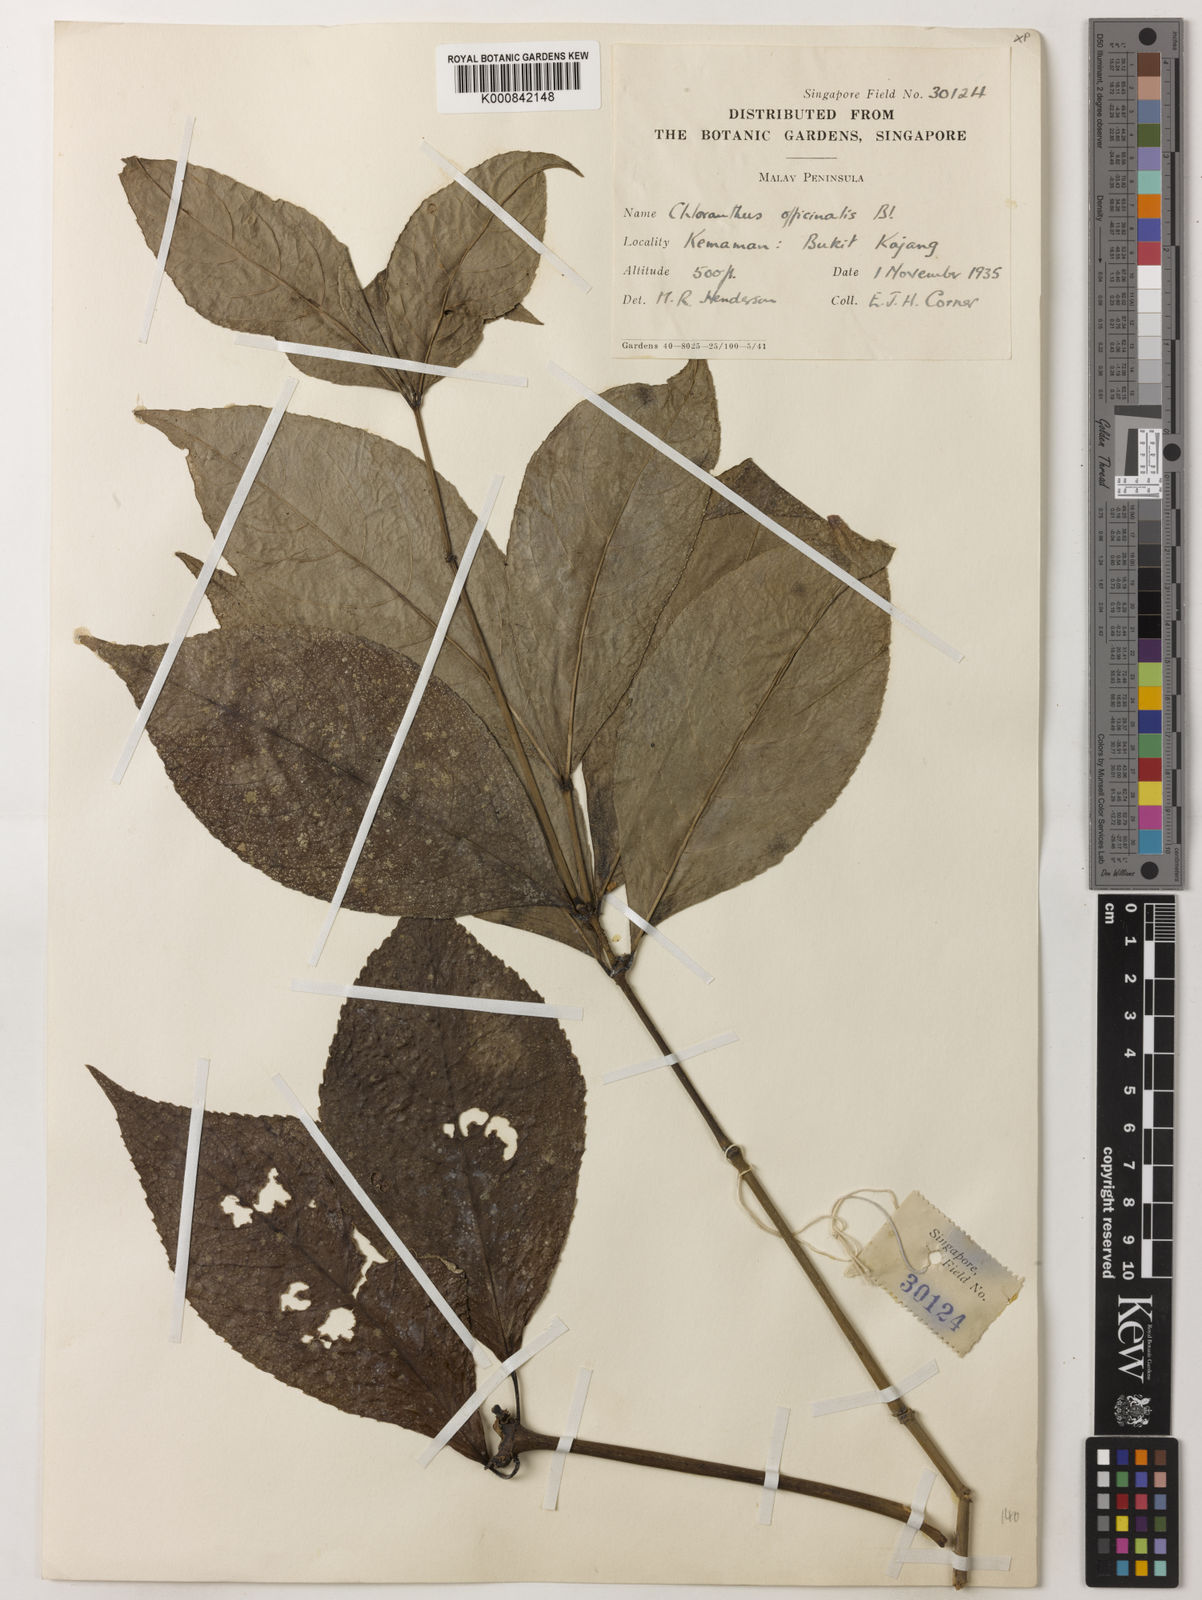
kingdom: Plantae
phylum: Tracheophyta
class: Magnoliopsida
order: Chloranthales
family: Chloranthaceae
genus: Chloranthus
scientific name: Chloranthus
